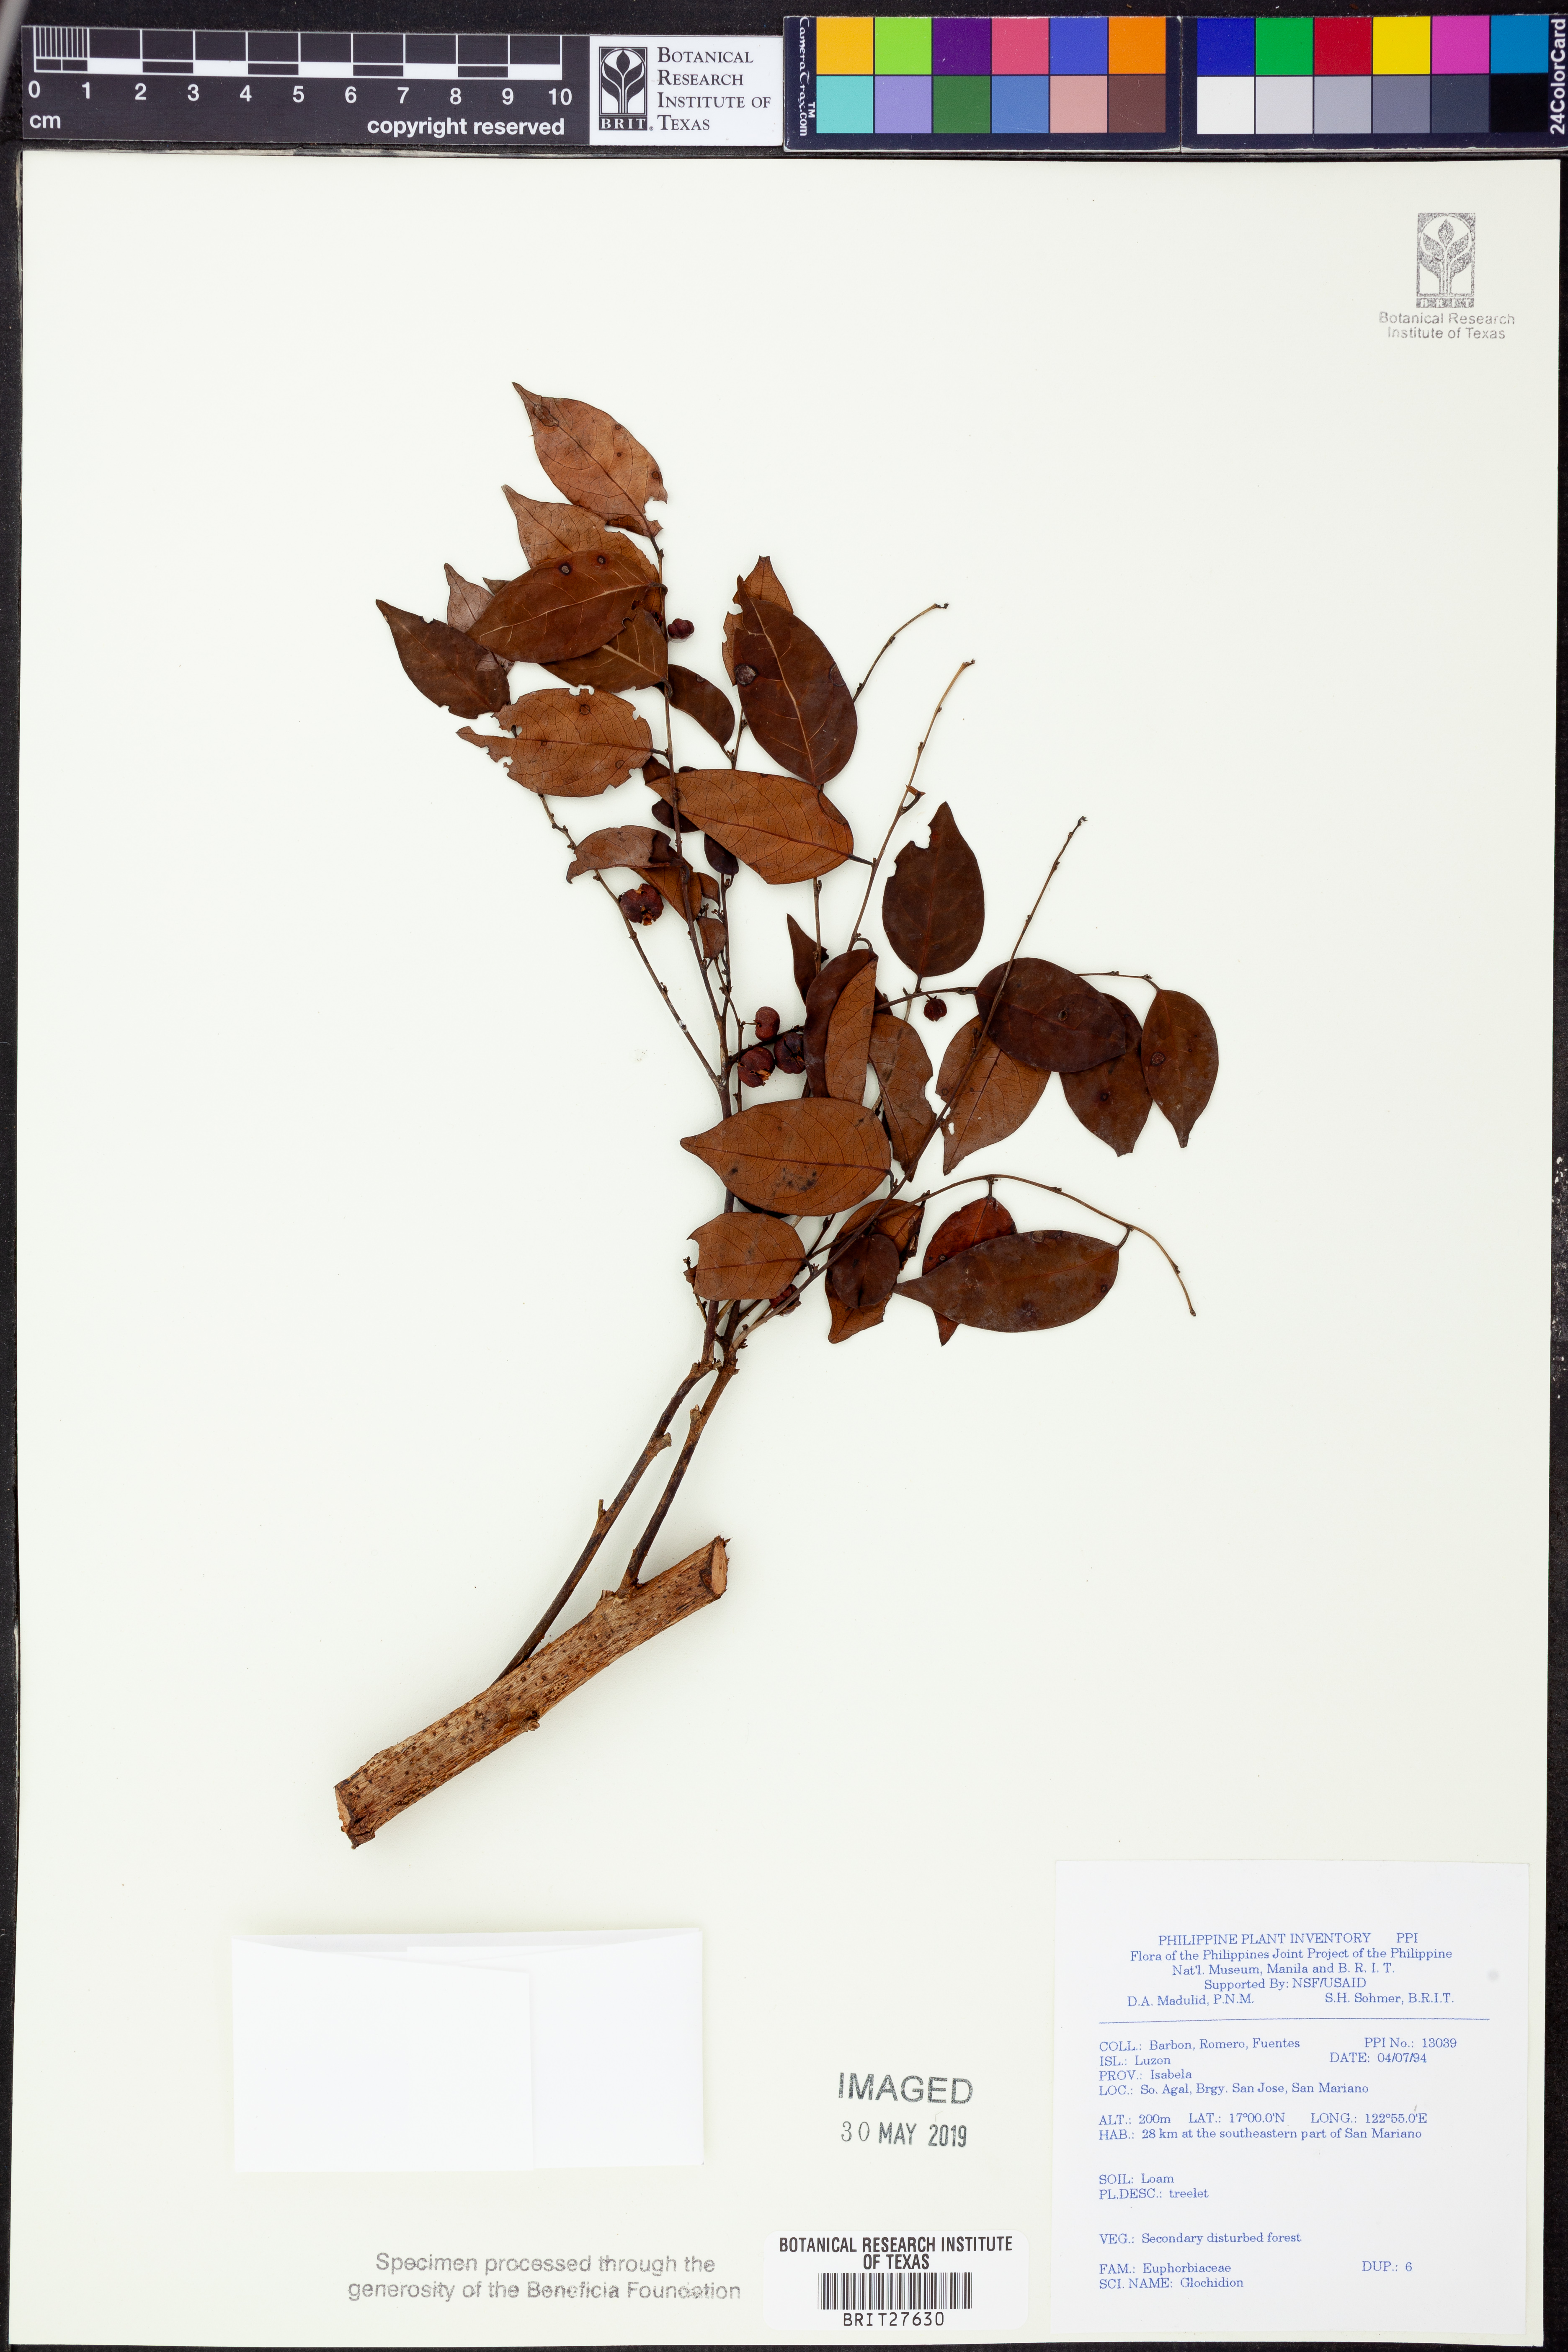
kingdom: Plantae
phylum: Tracheophyta
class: Magnoliopsida
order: Malpighiales
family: Phyllanthaceae
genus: Glochidion
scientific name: Glochidion
